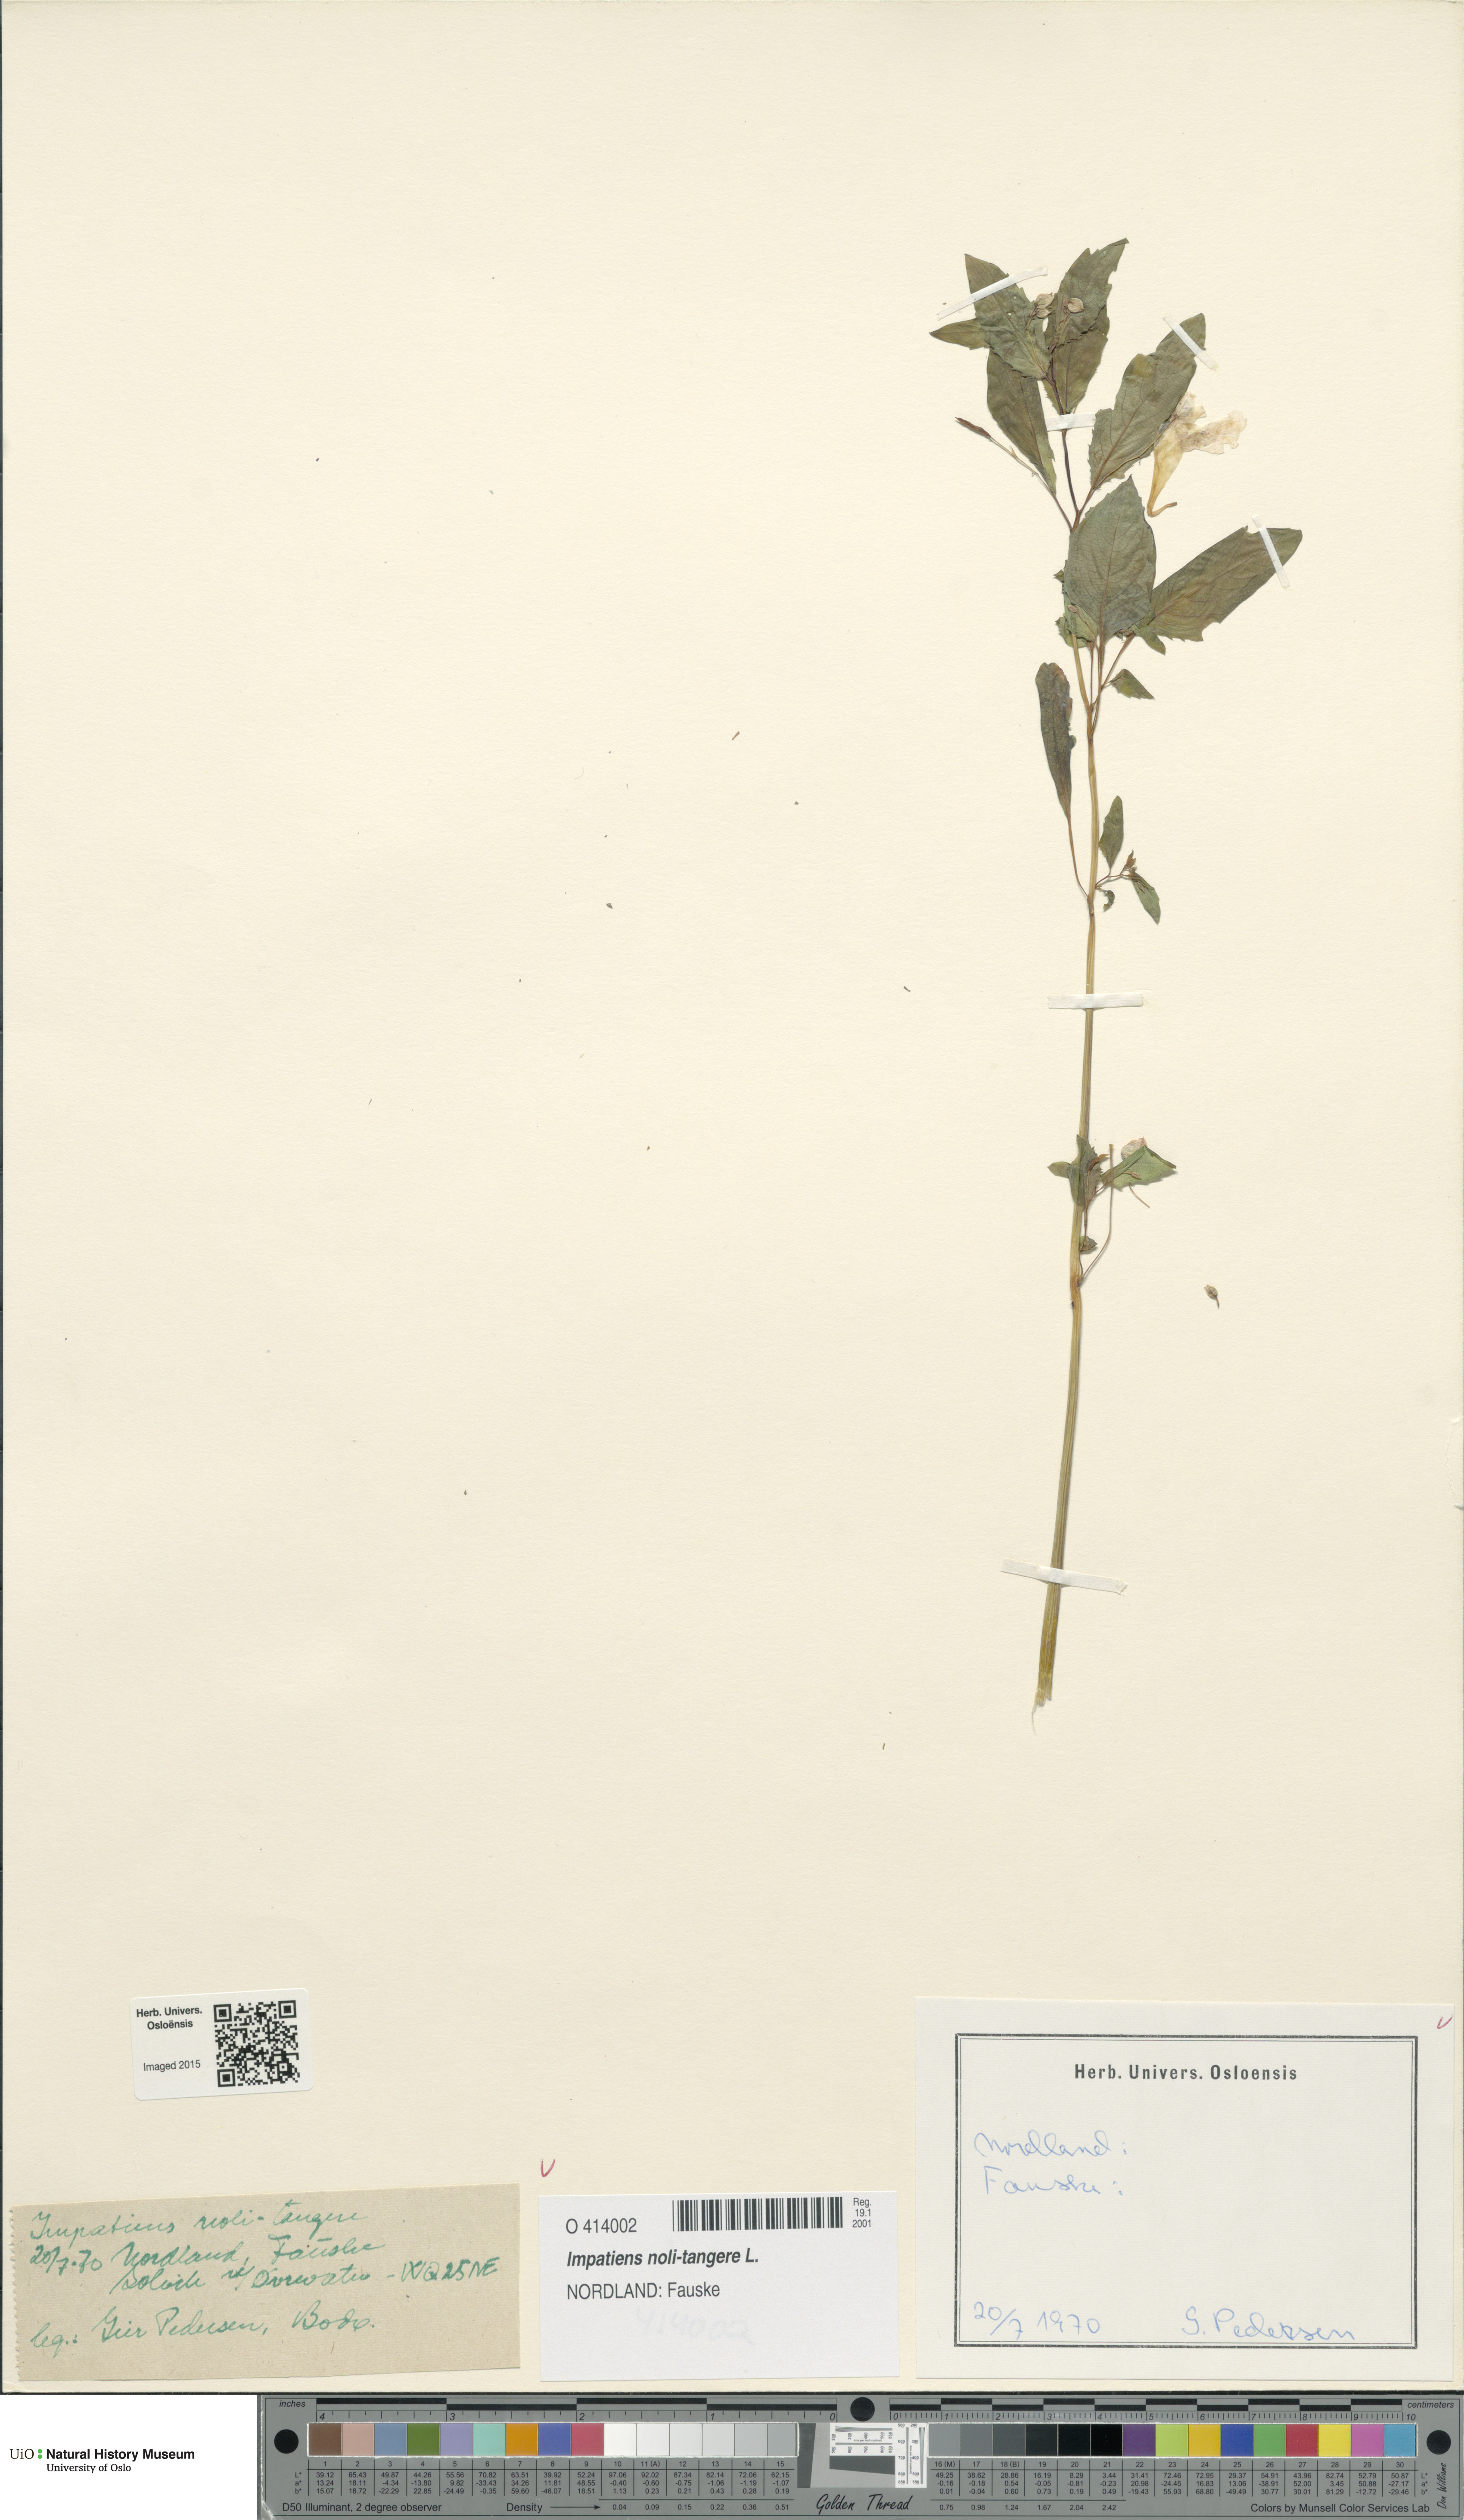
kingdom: Plantae
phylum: Tracheophyta
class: Magnoliopsida
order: Ericales
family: Balsaminaceae
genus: Impatiens
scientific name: Impatiens noli-tangere
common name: Touch-me-not balsam
